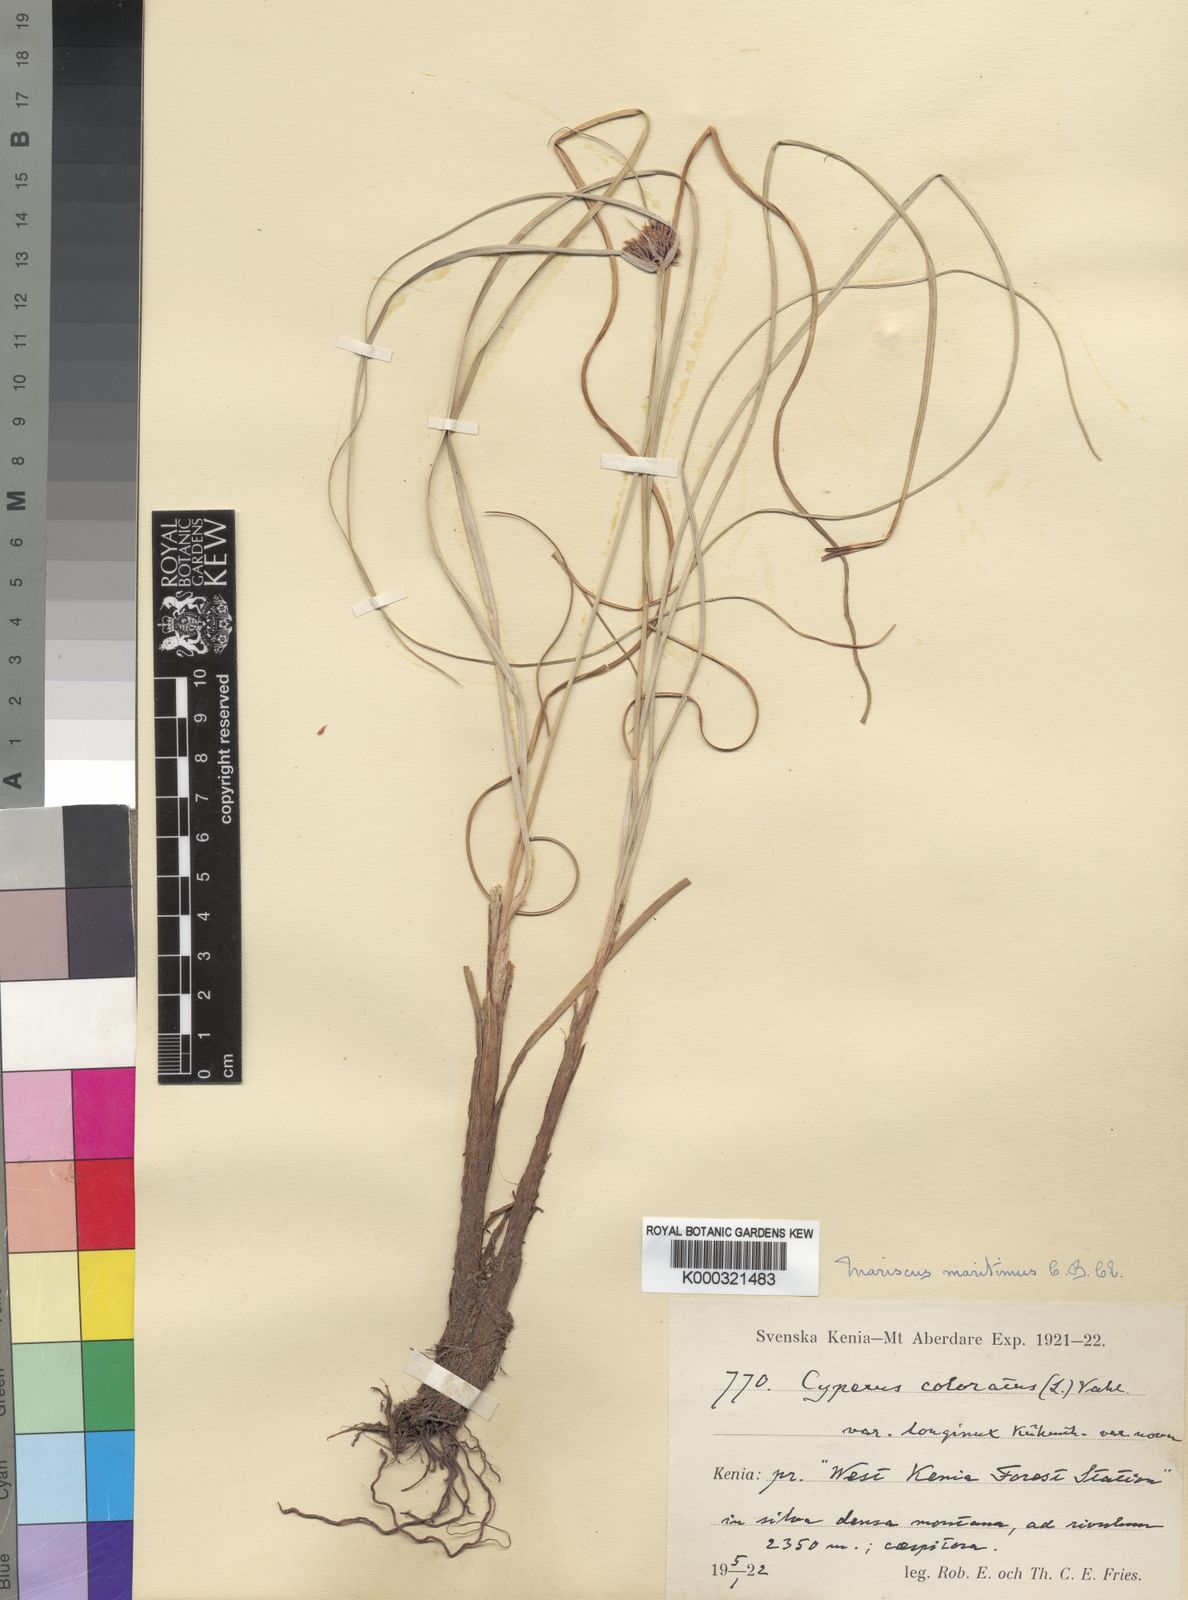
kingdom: Plantae
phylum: Tracheophyta
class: Liliopsida
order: Poales
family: Cyperaceae
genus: Cyperus
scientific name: Cyperus
